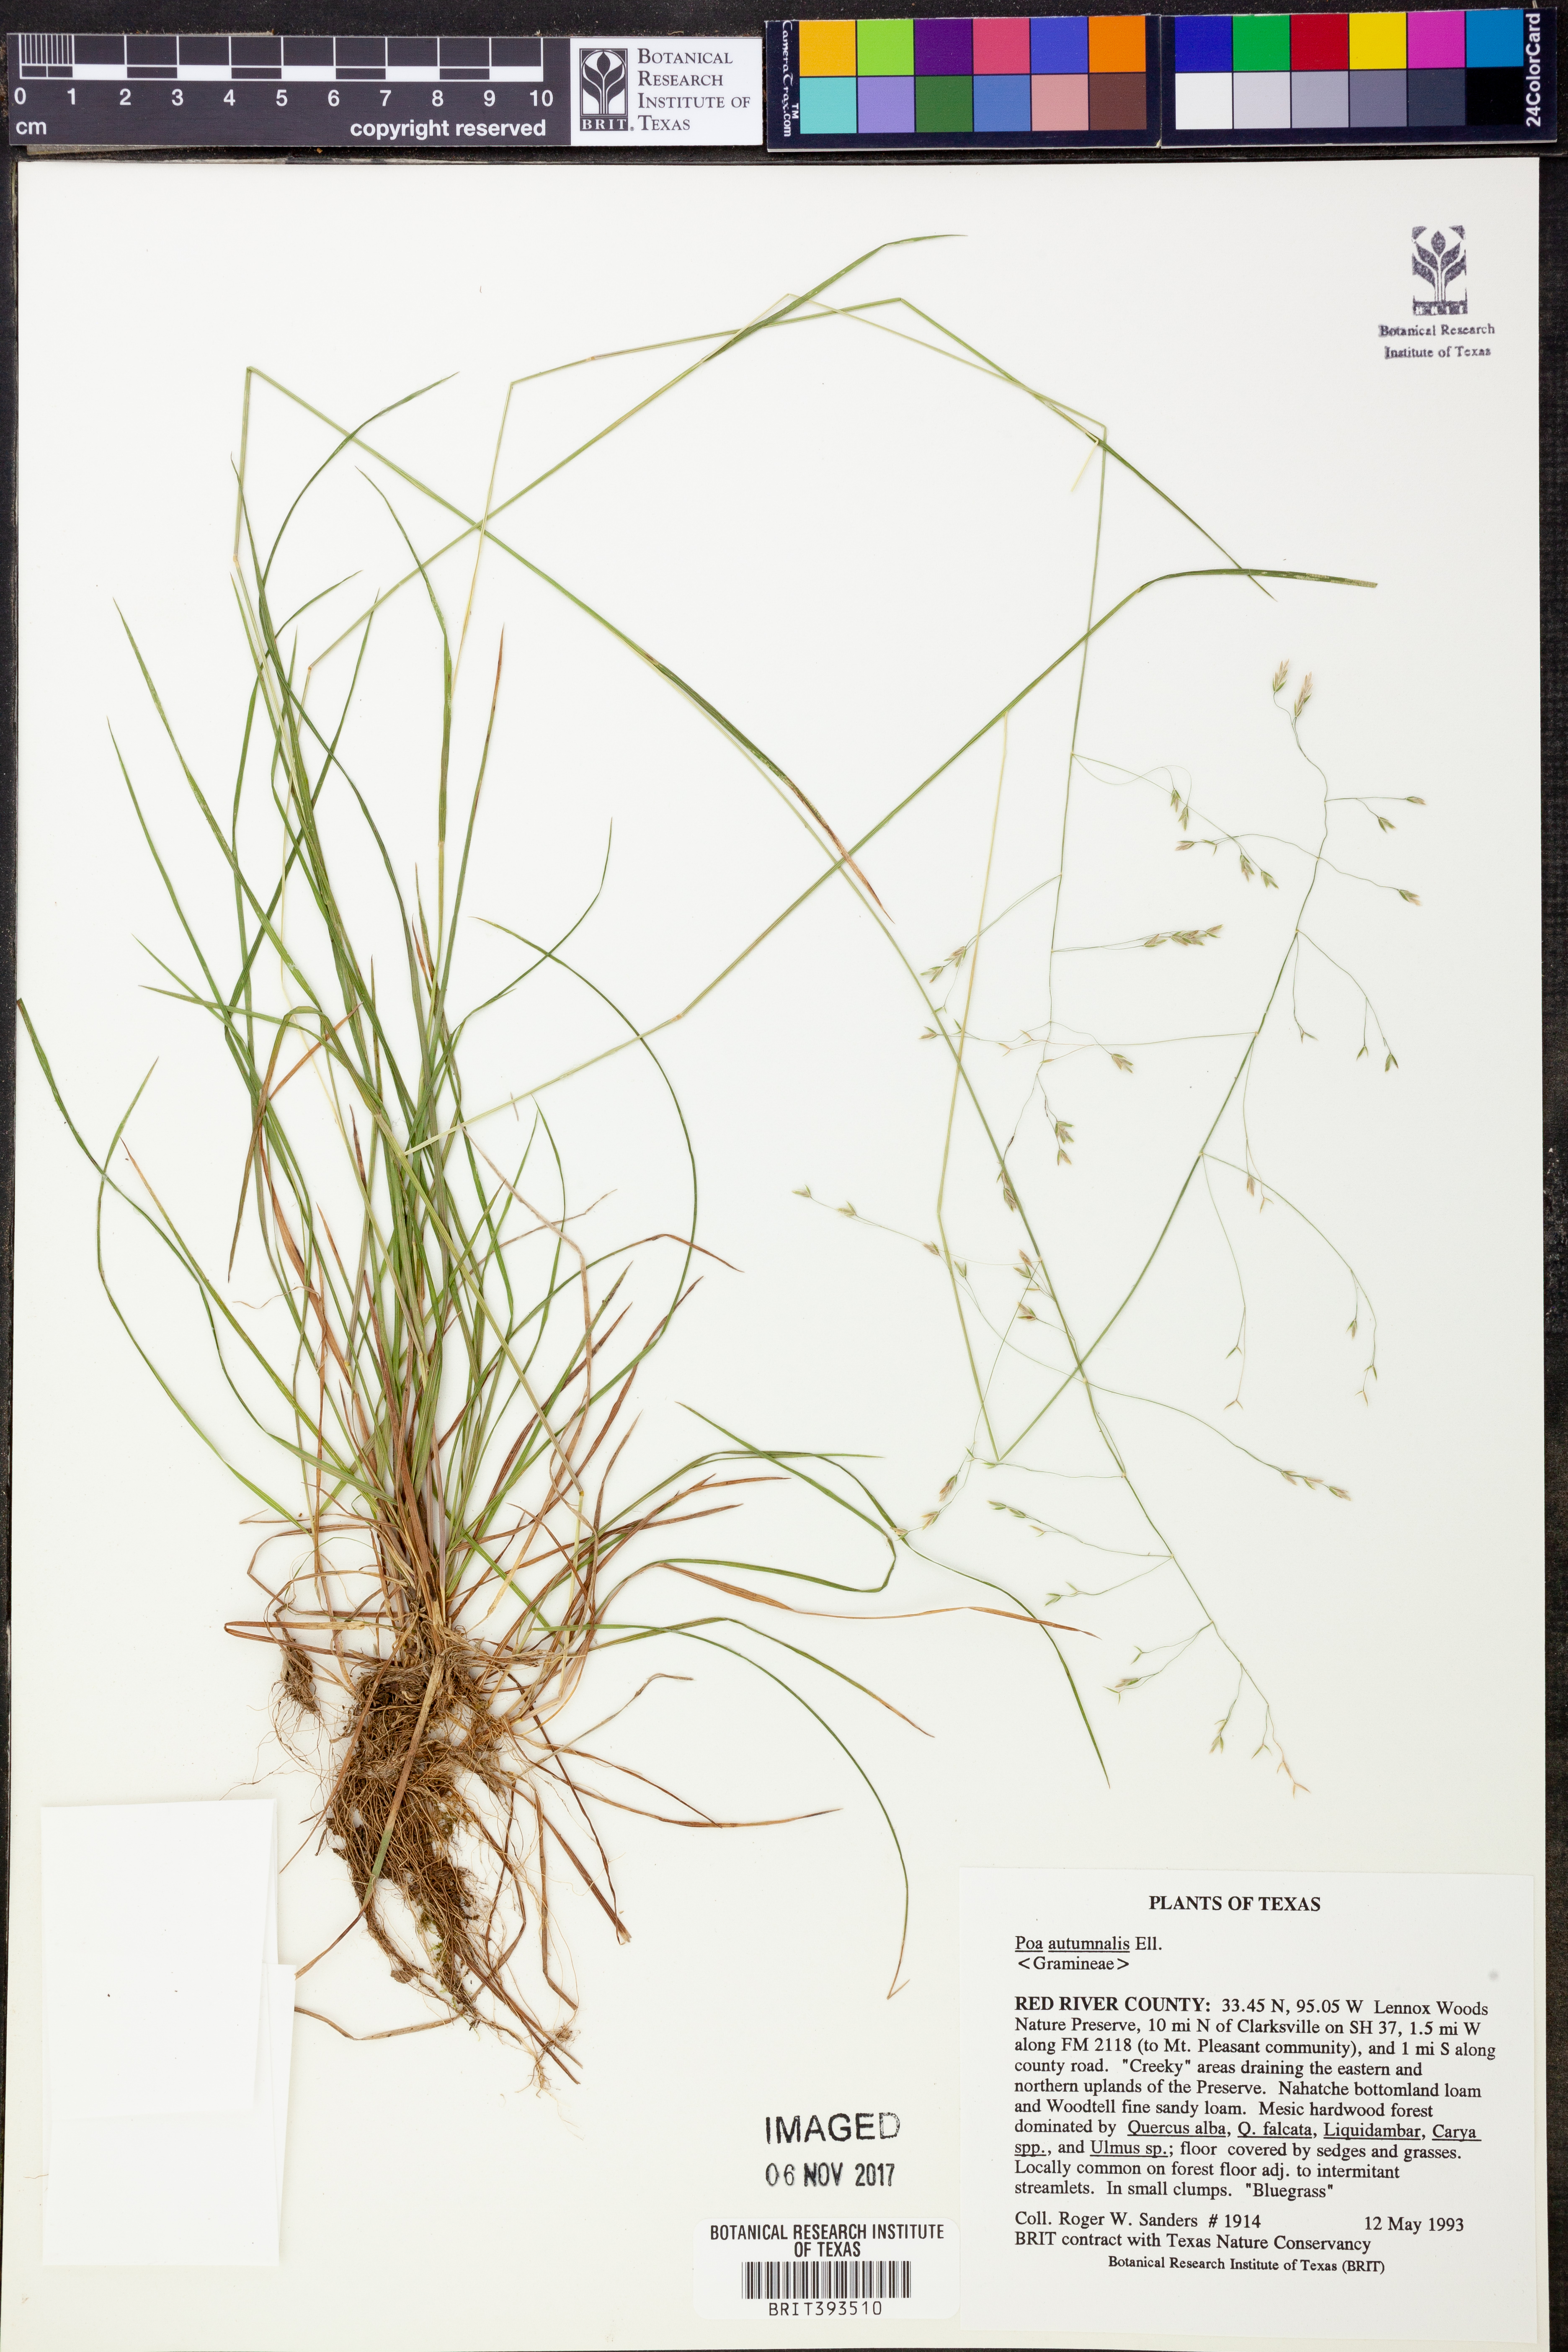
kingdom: Plantae
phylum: Tracheophyta
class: Liliopsida
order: Poales
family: Poaceae
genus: Poa
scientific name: Poa autumnalis
